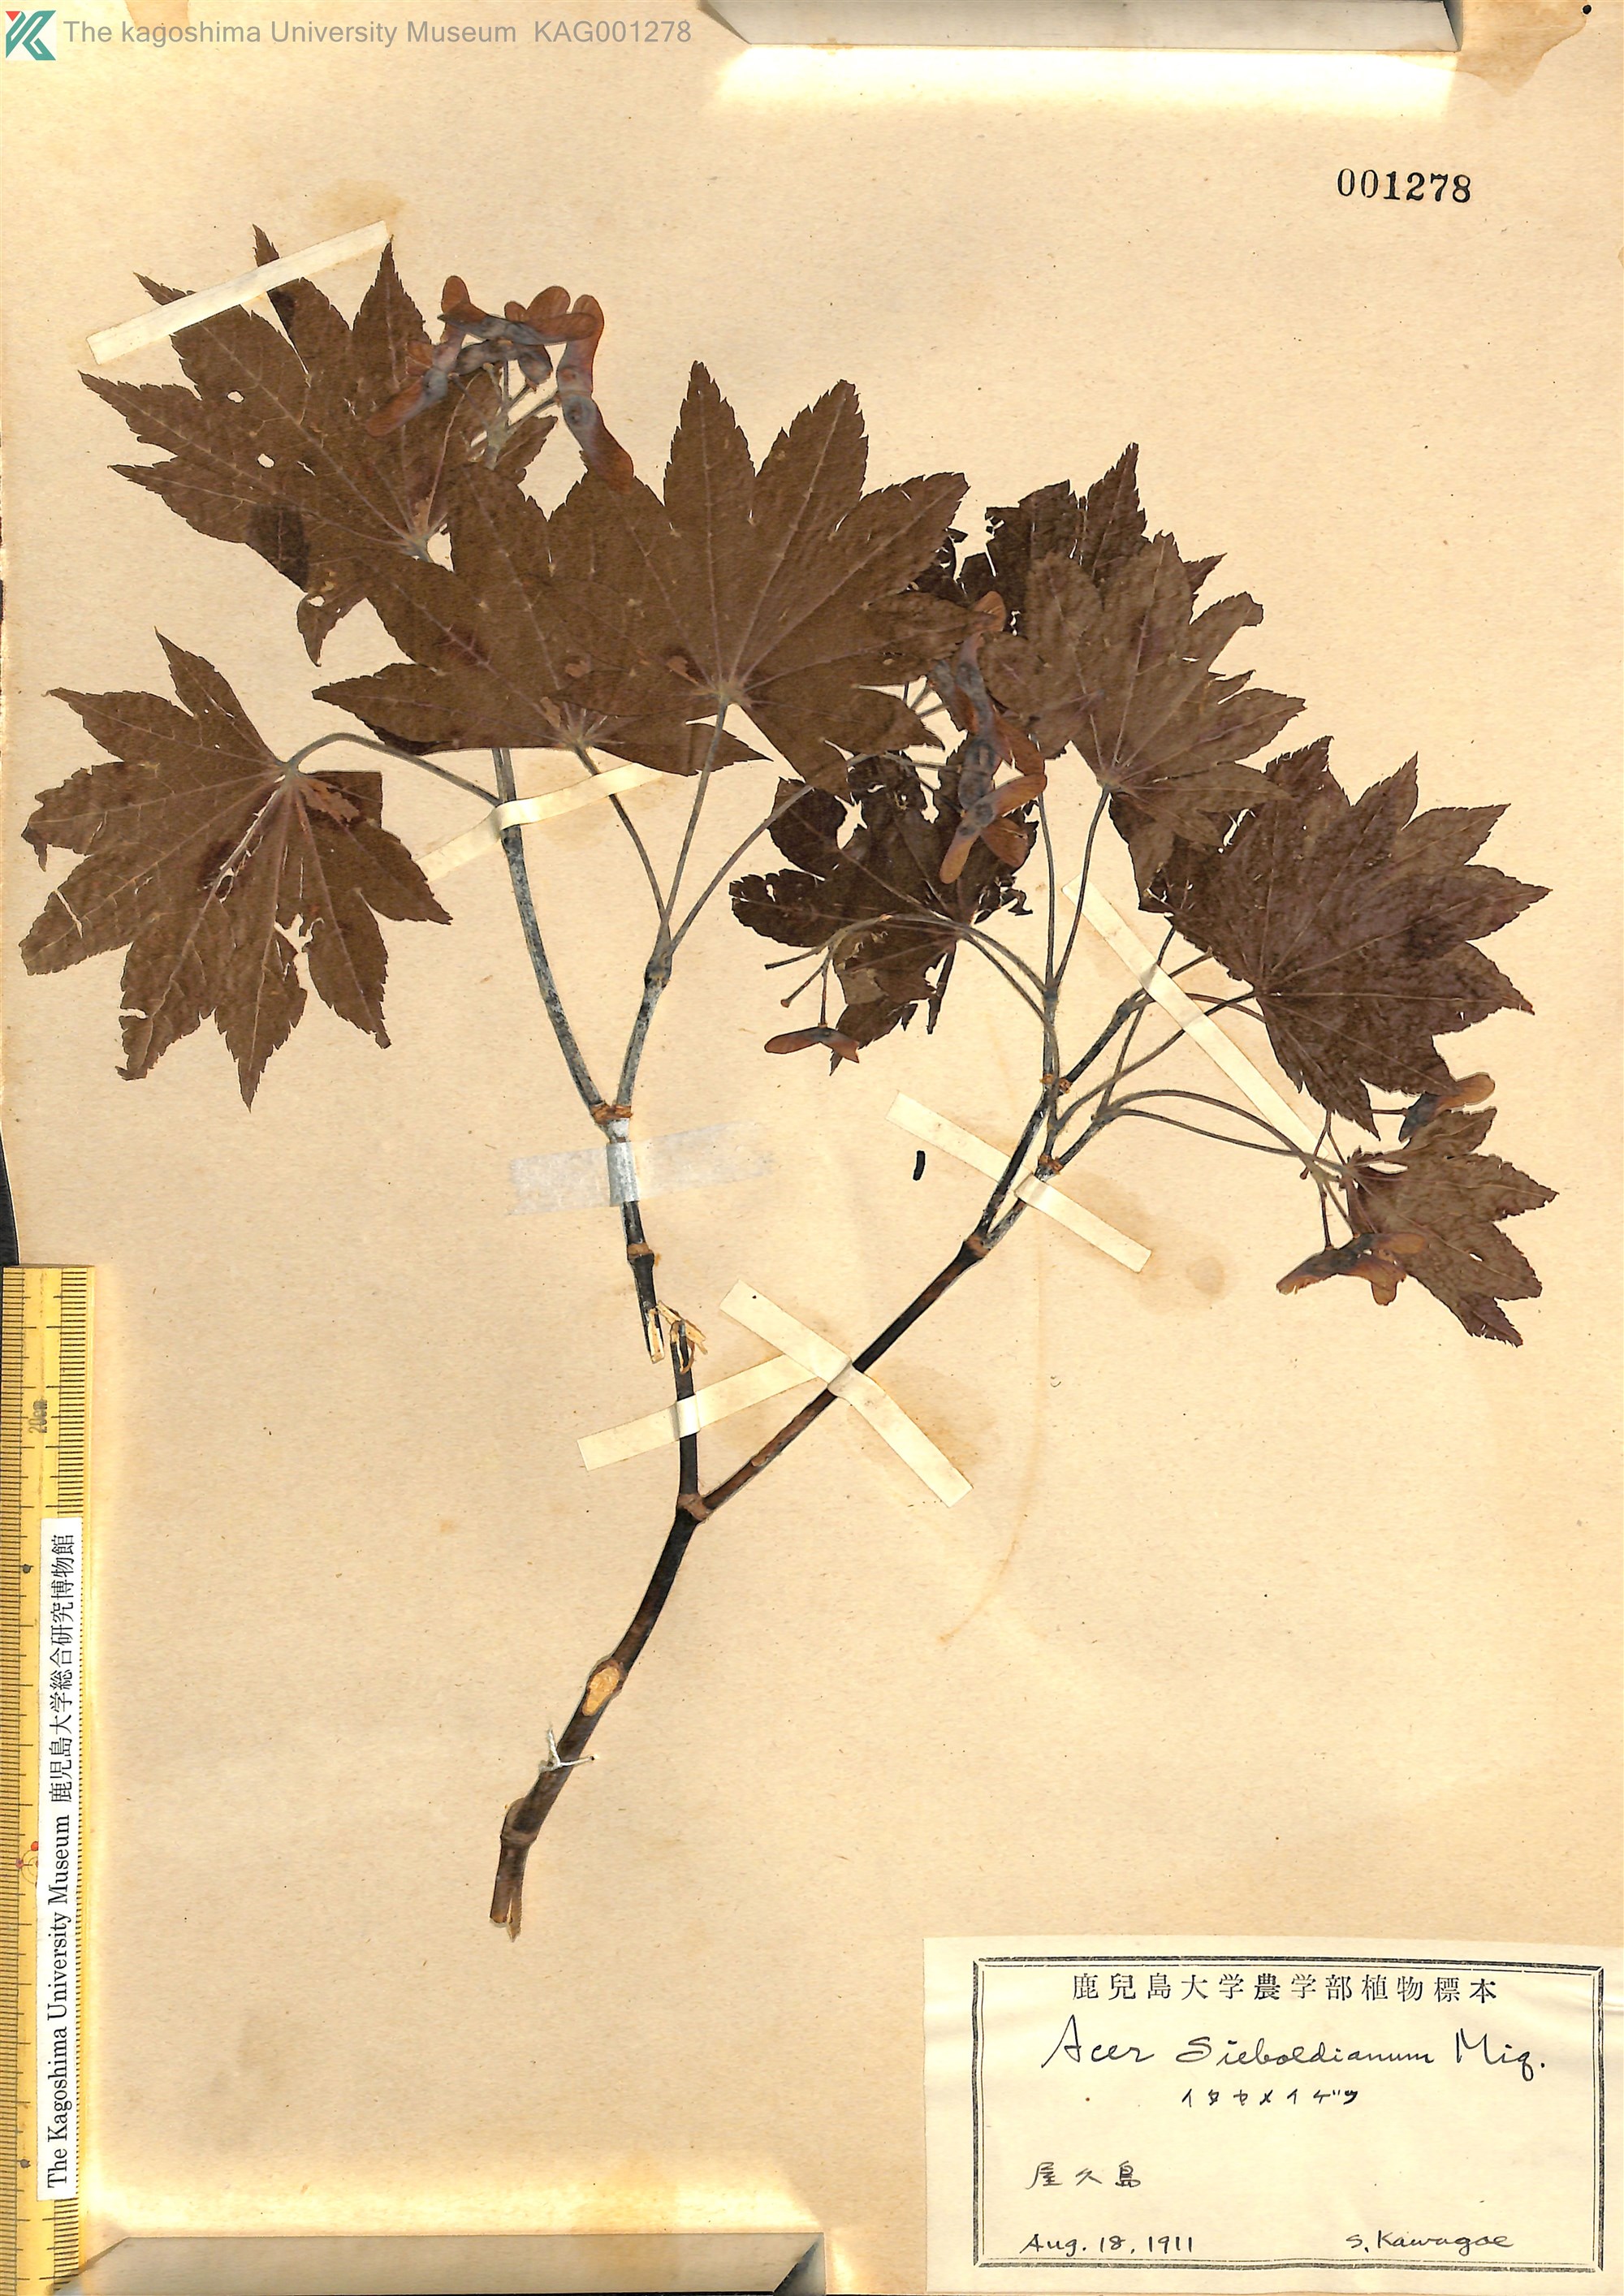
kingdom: Plantae
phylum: Tracheophyta
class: Magnoliopsida
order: Sapindales
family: Sapindaceae
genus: Acer
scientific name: Acer sieboldianum
